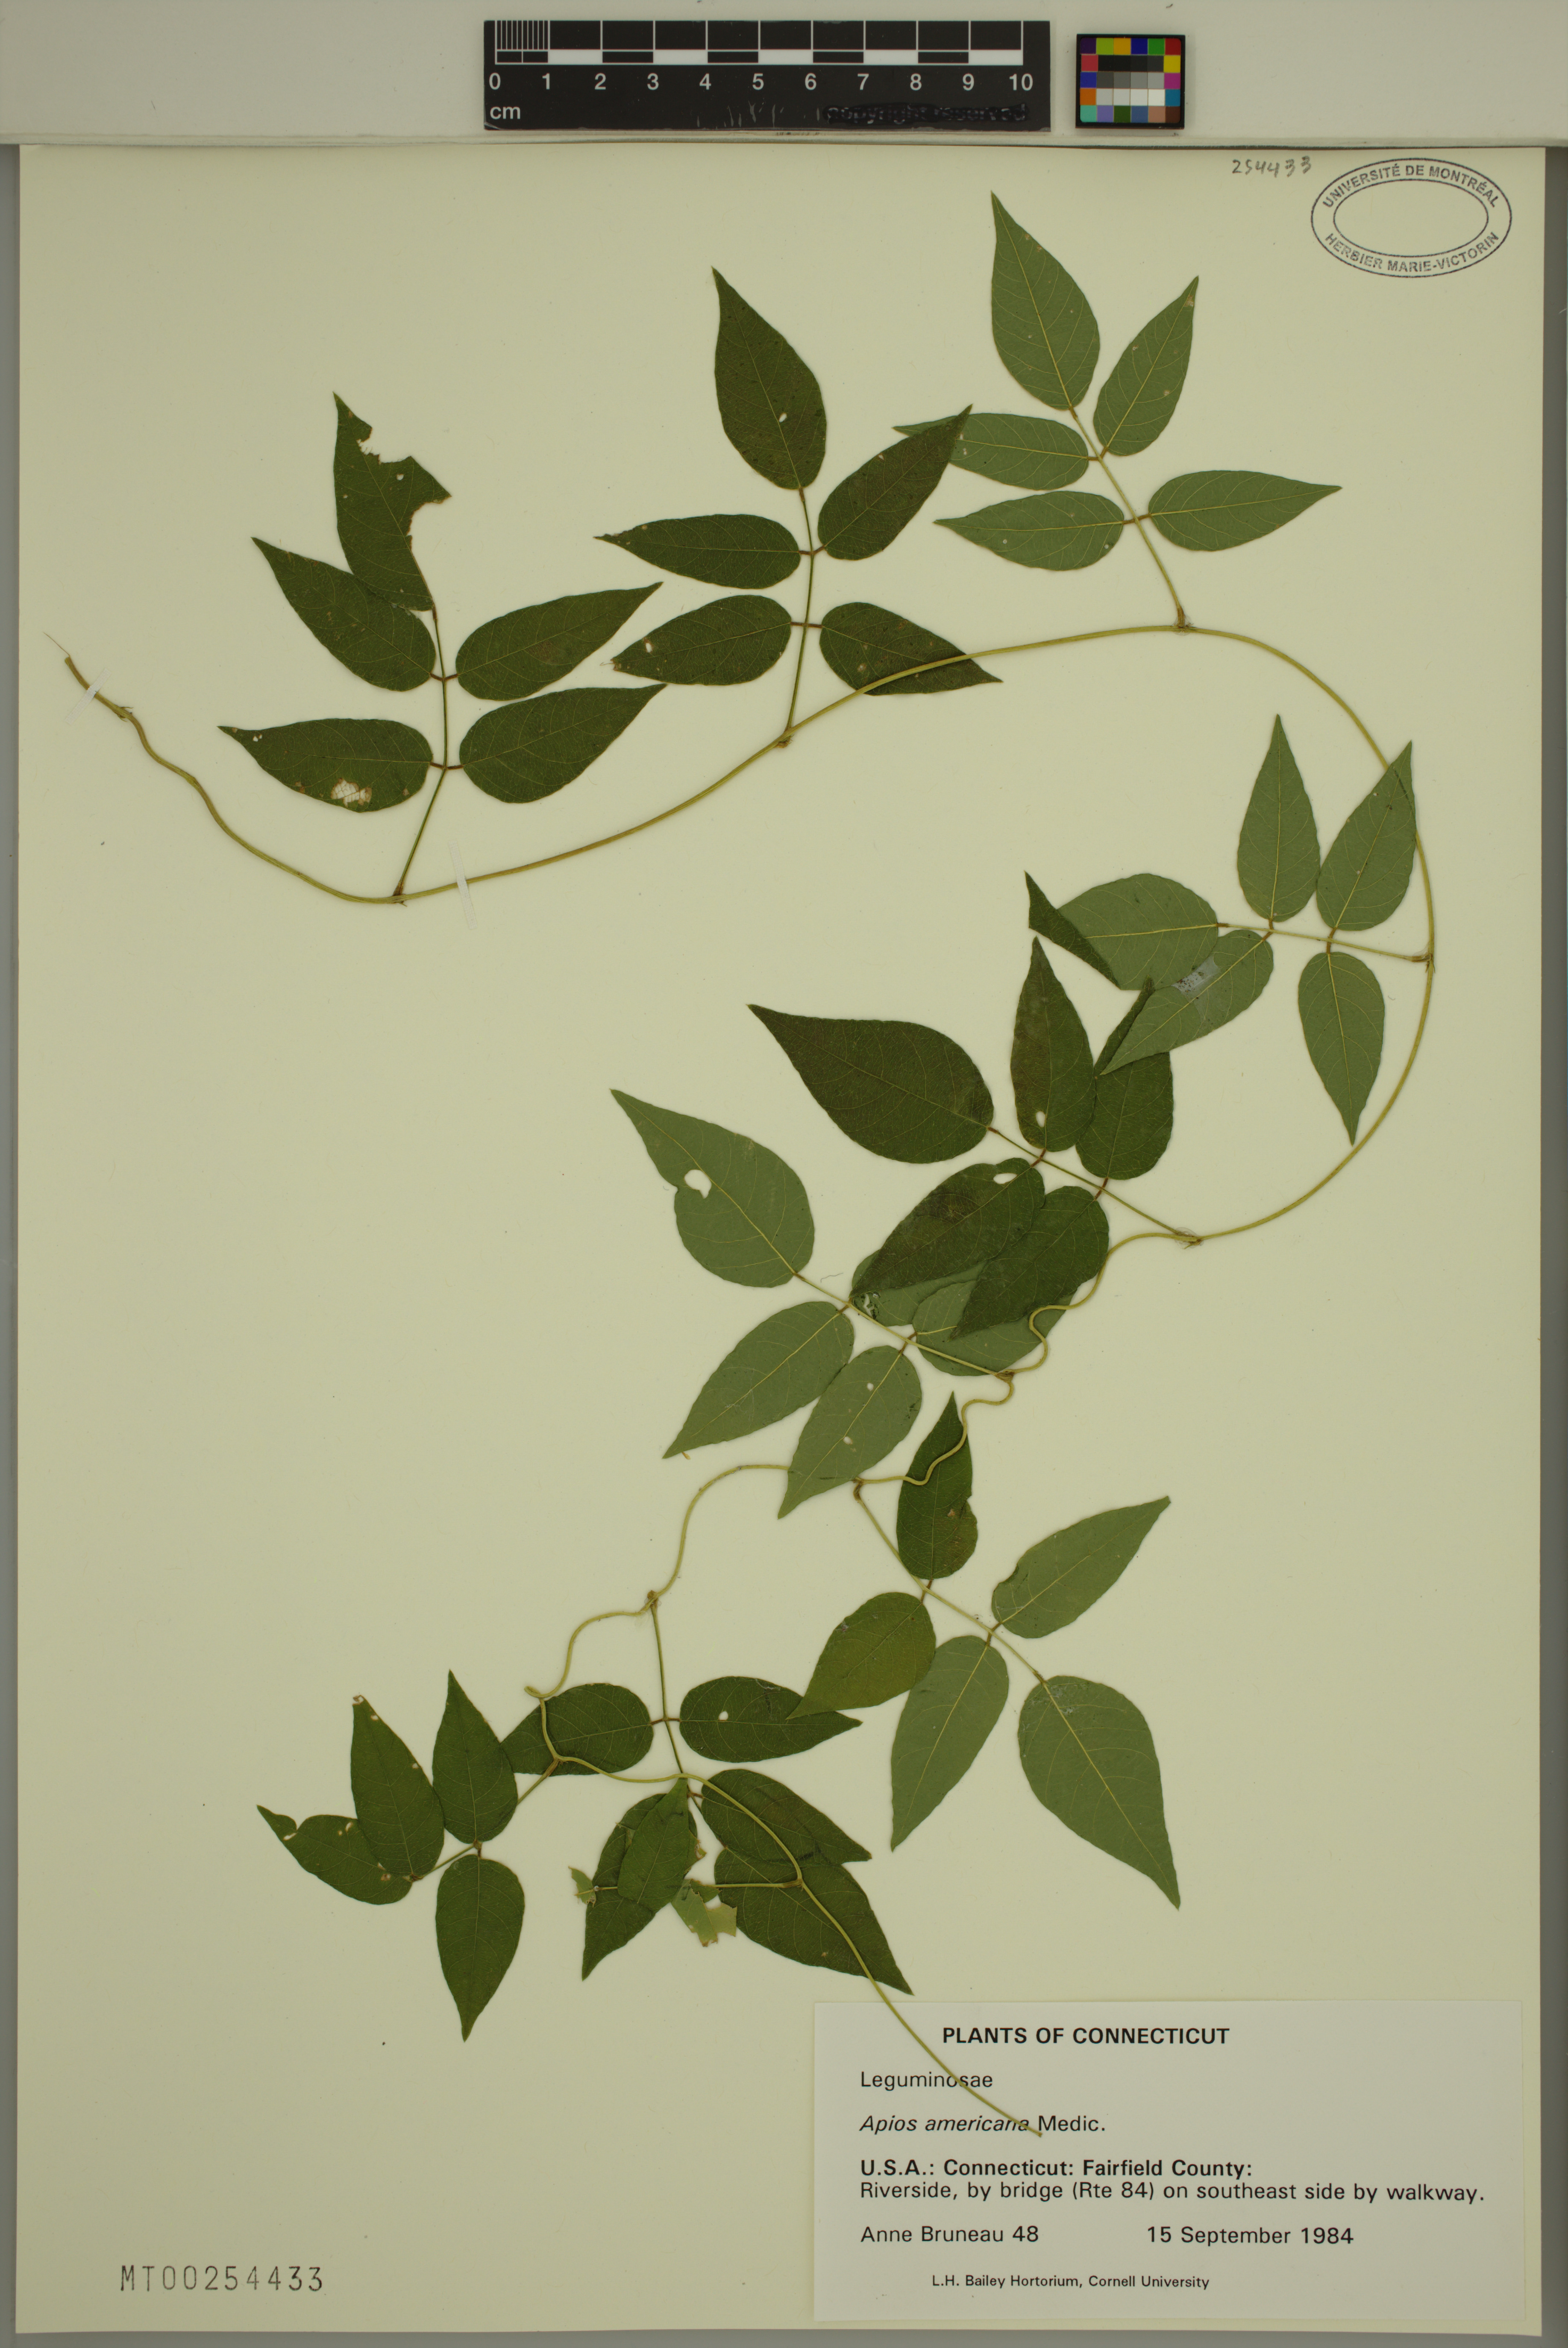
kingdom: Plantae
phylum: Tracheophyta
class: Magnoliopsida
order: Fabales
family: Fabaceae
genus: Apios
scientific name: Apios americana
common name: American potato-bean
